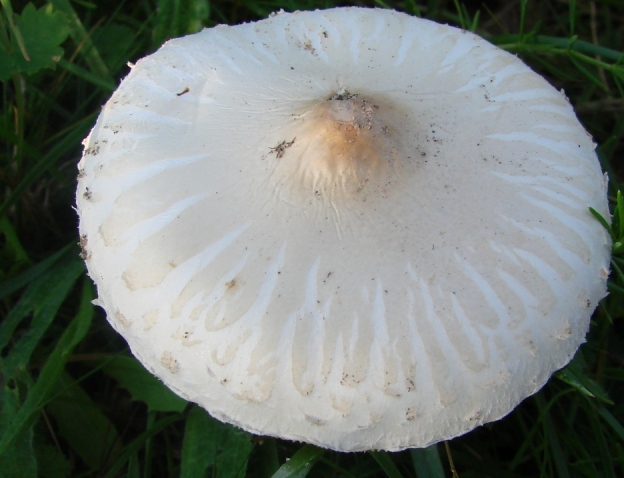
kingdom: Fungi
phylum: Basidiomycota
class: Agaricomycetes
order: Agaricales
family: Agaricaceae
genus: Macrolepiota
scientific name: Macrolepiota excoriata
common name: mark-kæmpeparasolhat
